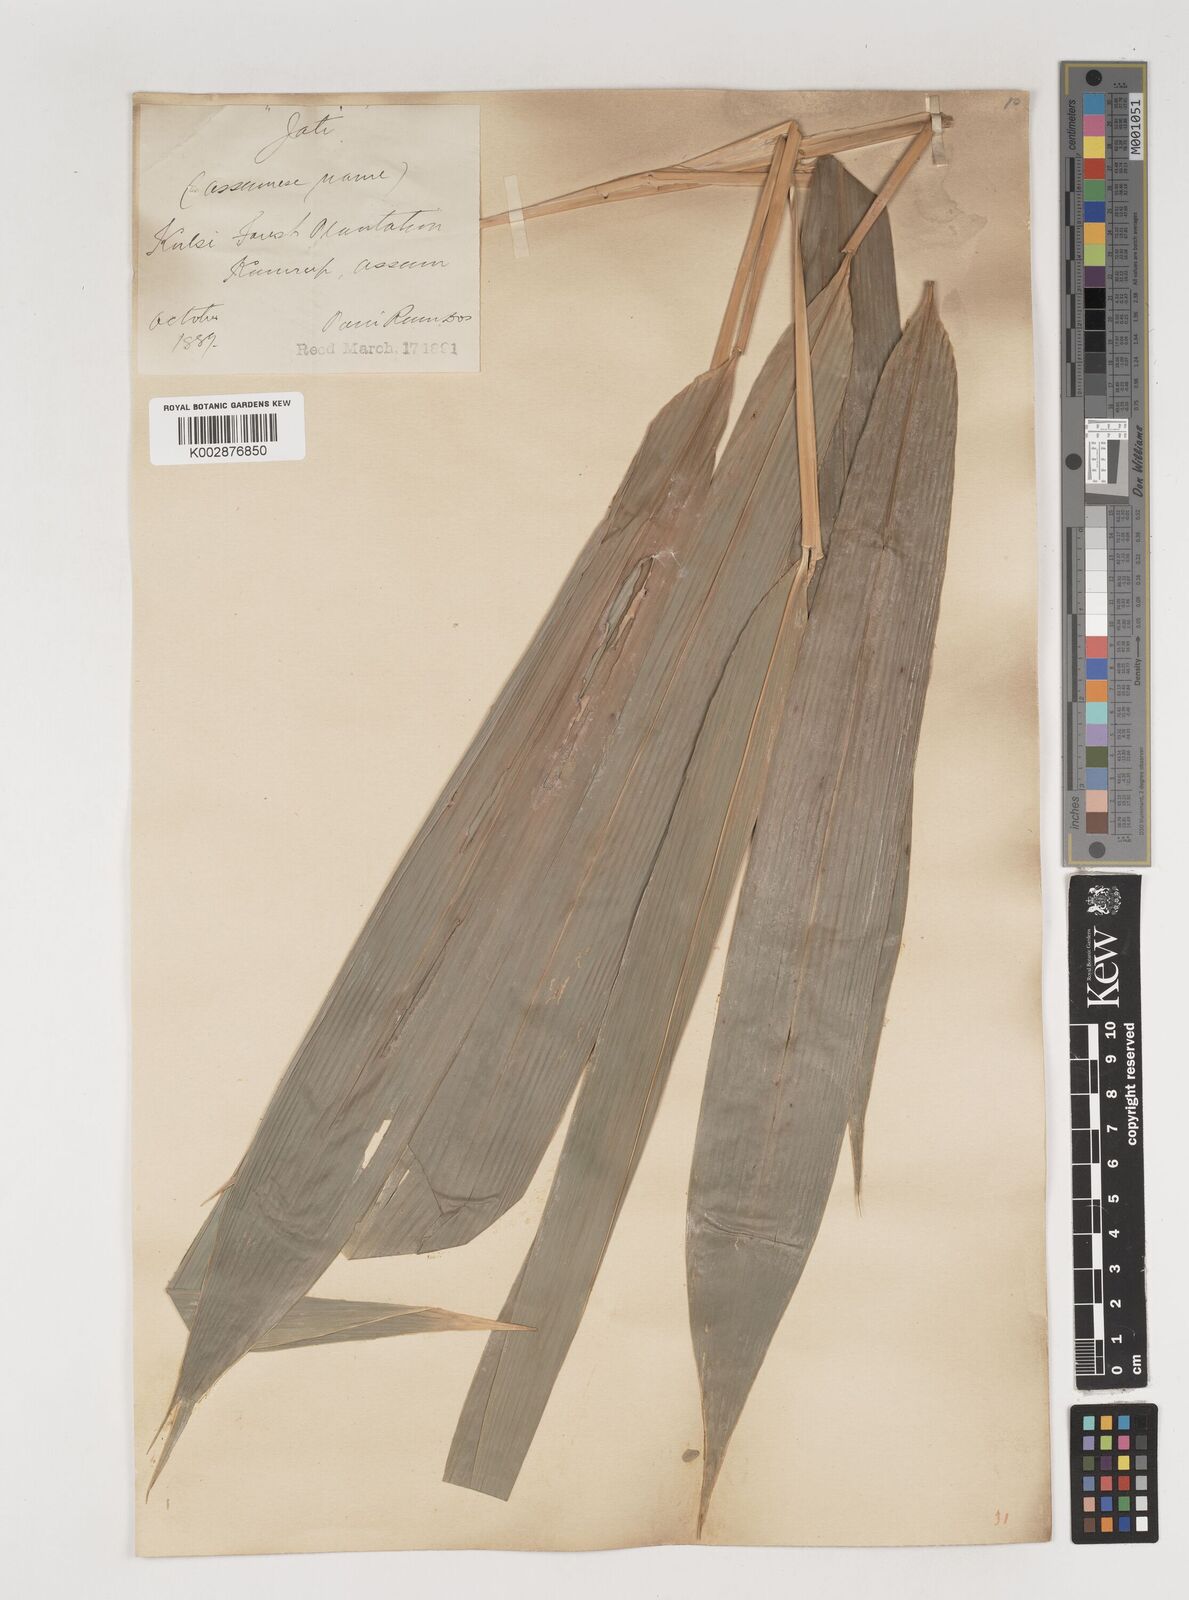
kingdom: Plantae
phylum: Tracheophyta
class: Liliopsida
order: Poales
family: Poaceae
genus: Bambusa
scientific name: Bambusa tulda
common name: Bengal bamboo
